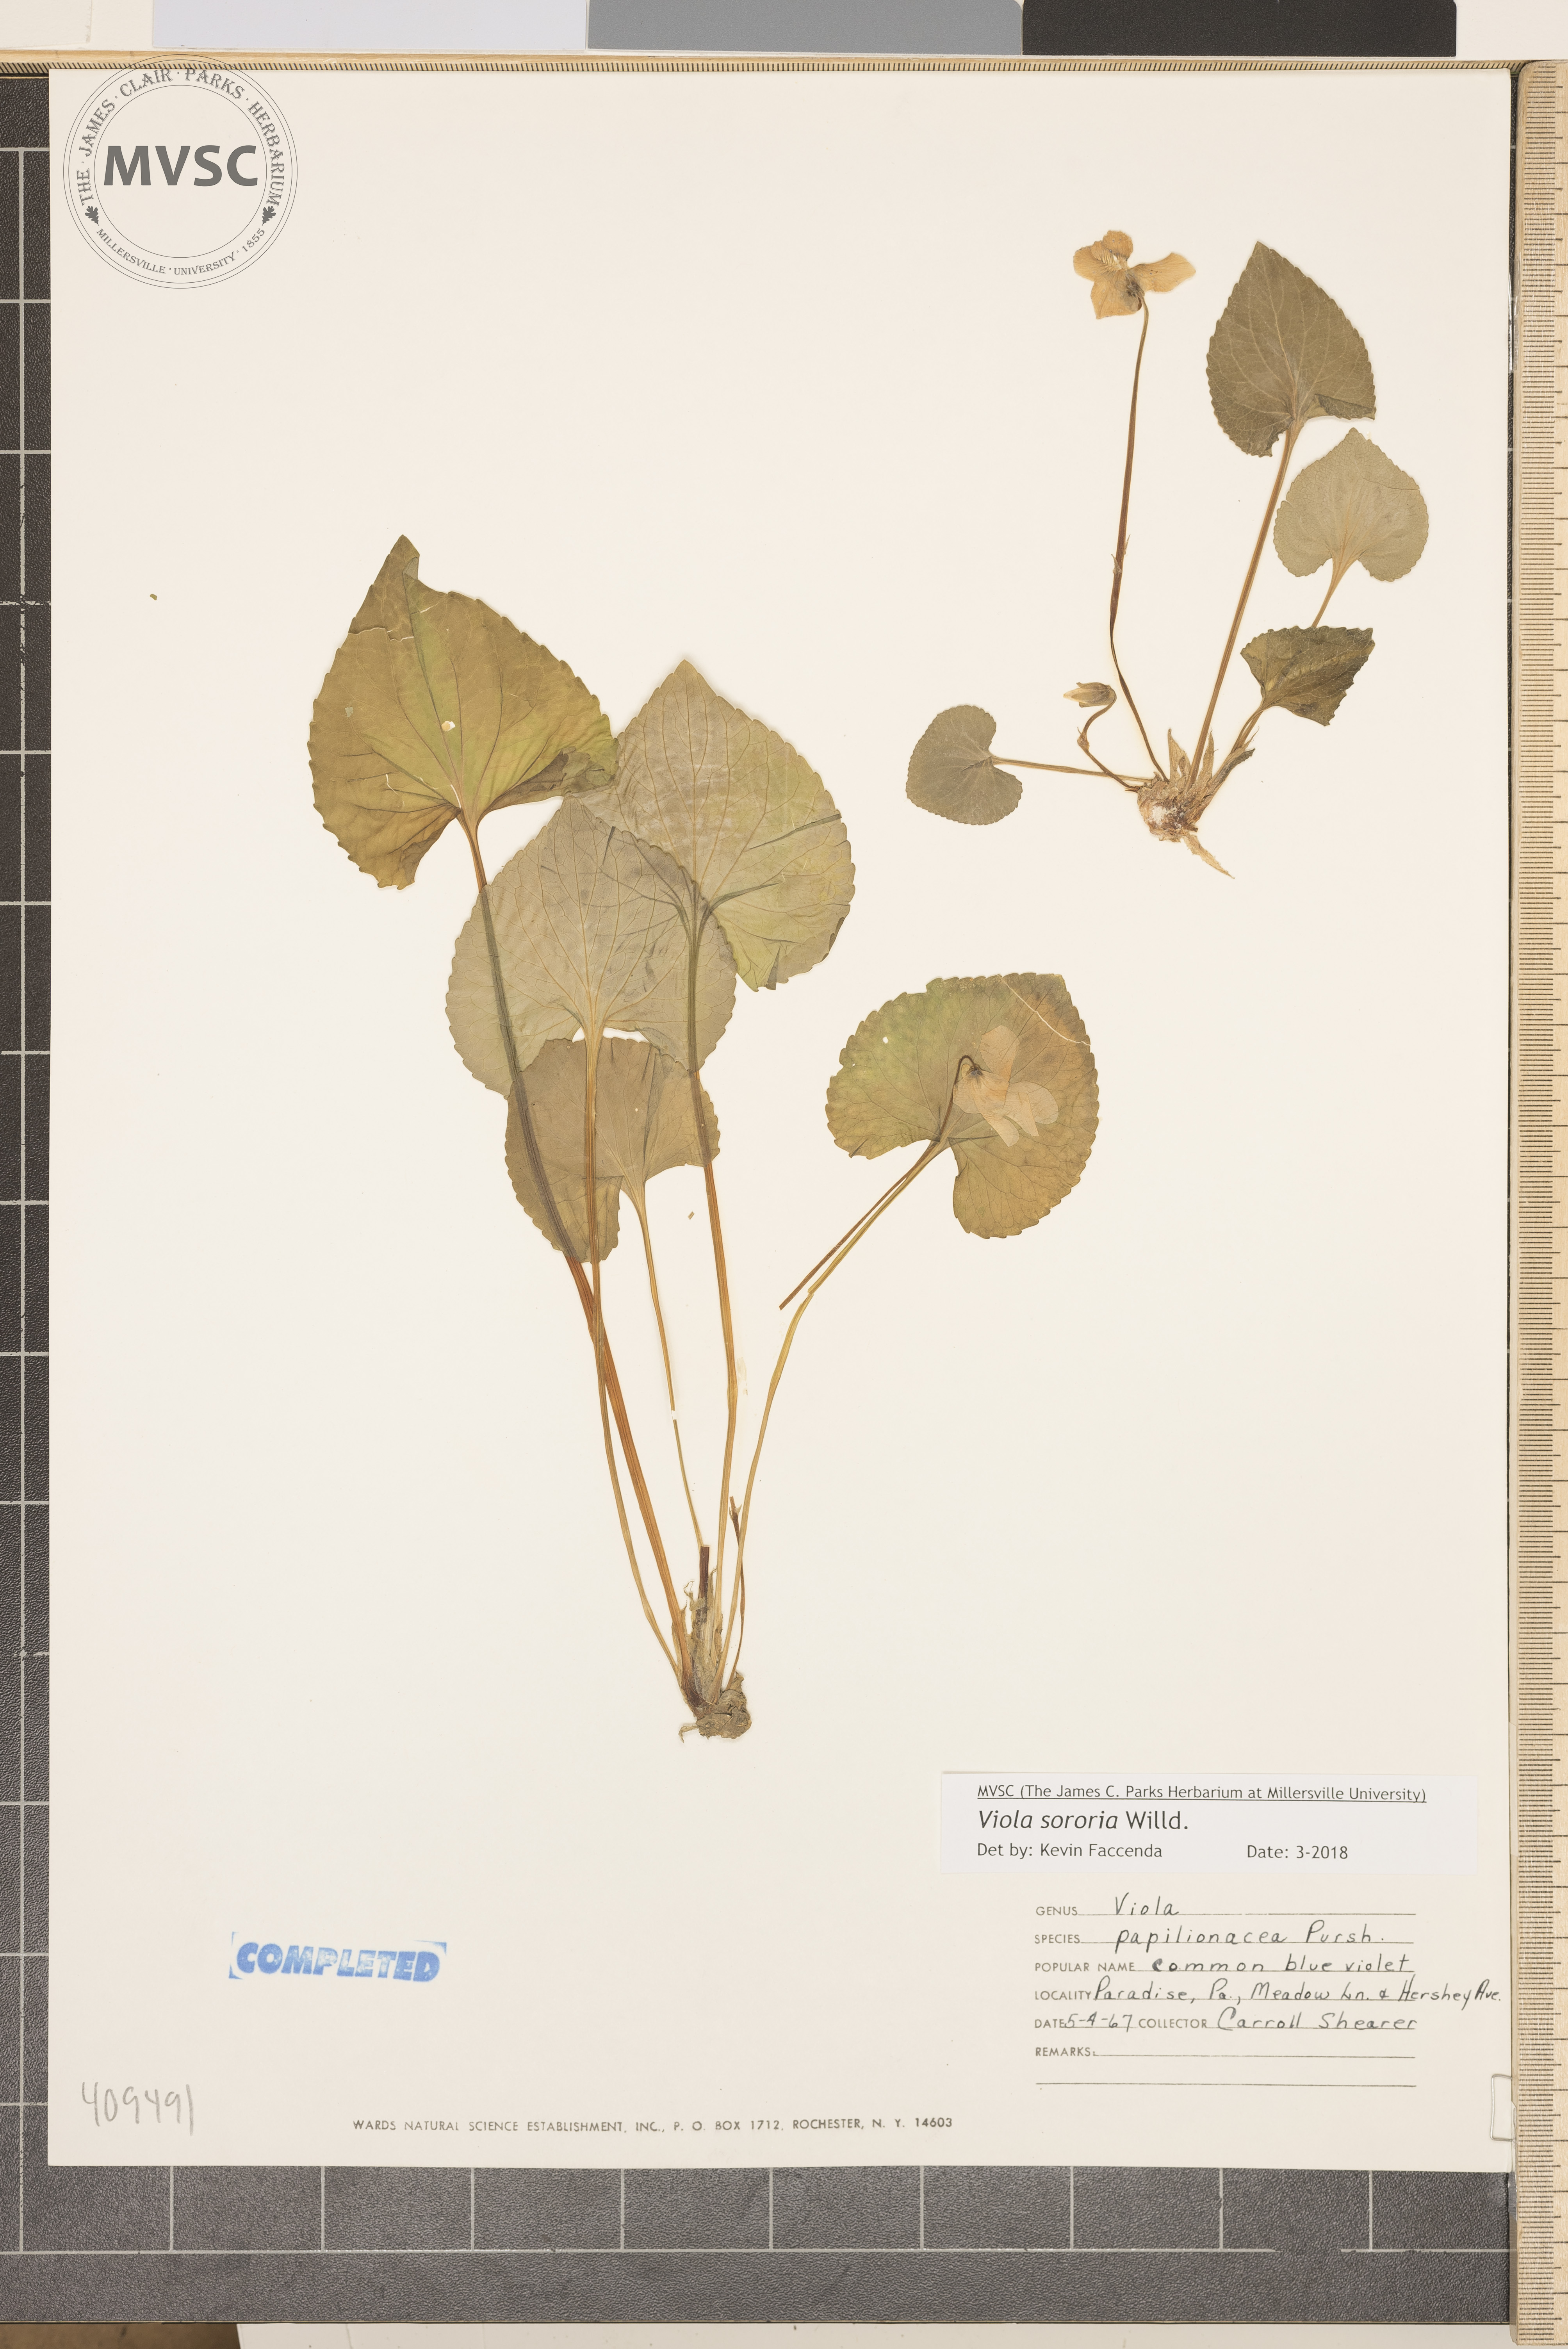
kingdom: Plantae
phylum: Tracheophyta
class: Magnoliopsida
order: Malpighiales
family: Violaceae
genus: Viola
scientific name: Viola sororia
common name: Dooryard violet
